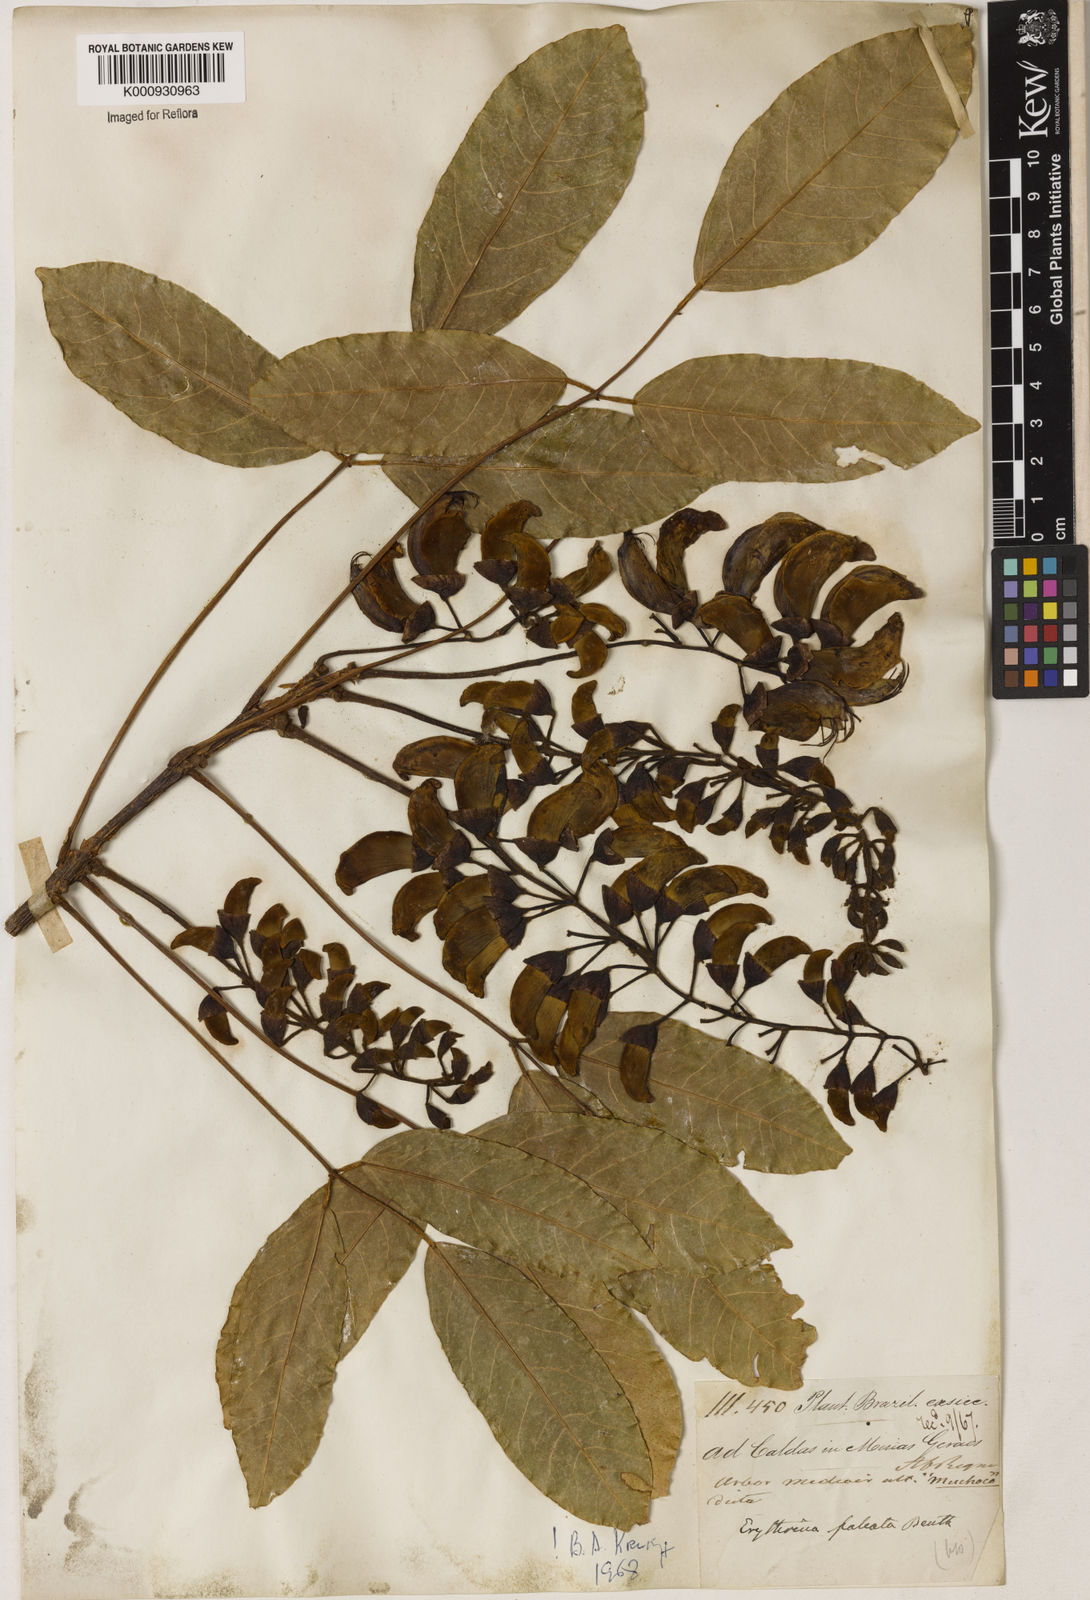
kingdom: Plantae
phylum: Tracheophyta
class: Magnoliopsida
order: Fabales
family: Fabaceae
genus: Erythrina
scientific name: Erythrina falcata
